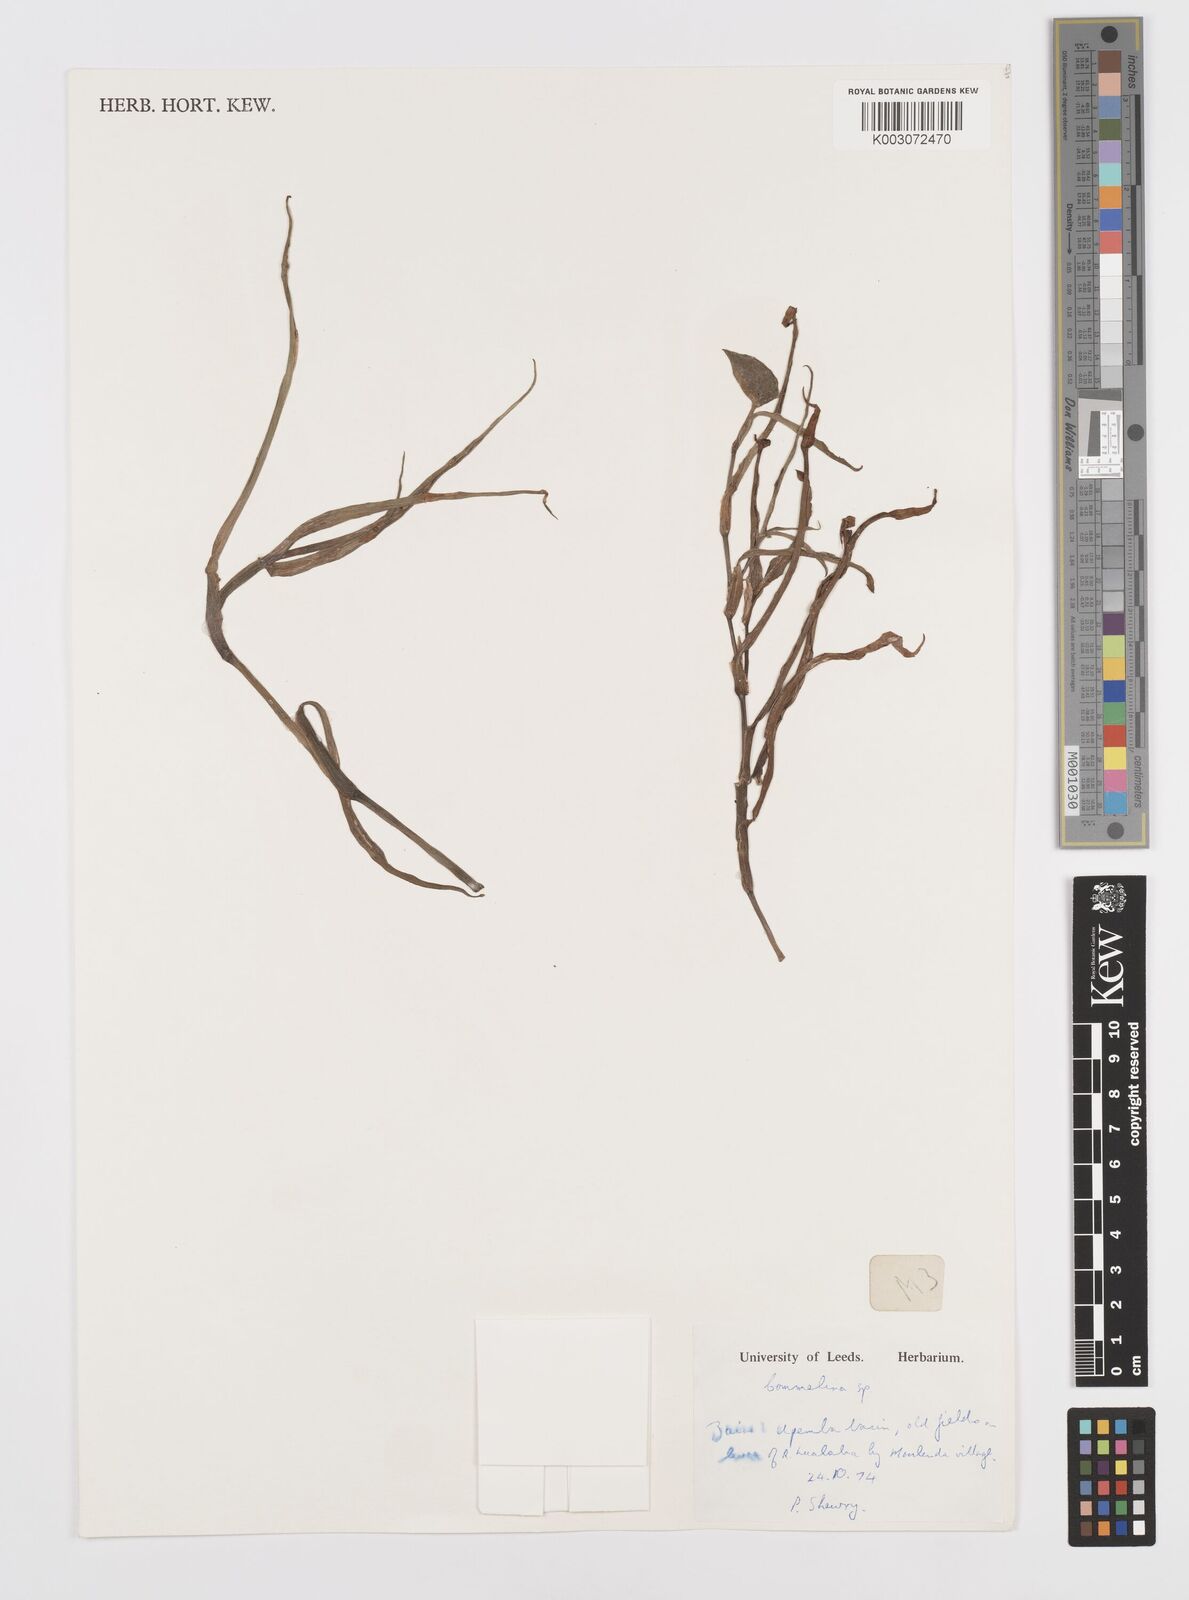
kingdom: Plantae
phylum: Tracheophyta
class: Liliopsida
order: Commelinales
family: Commelinaceae
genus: Commelina
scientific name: Commelina
